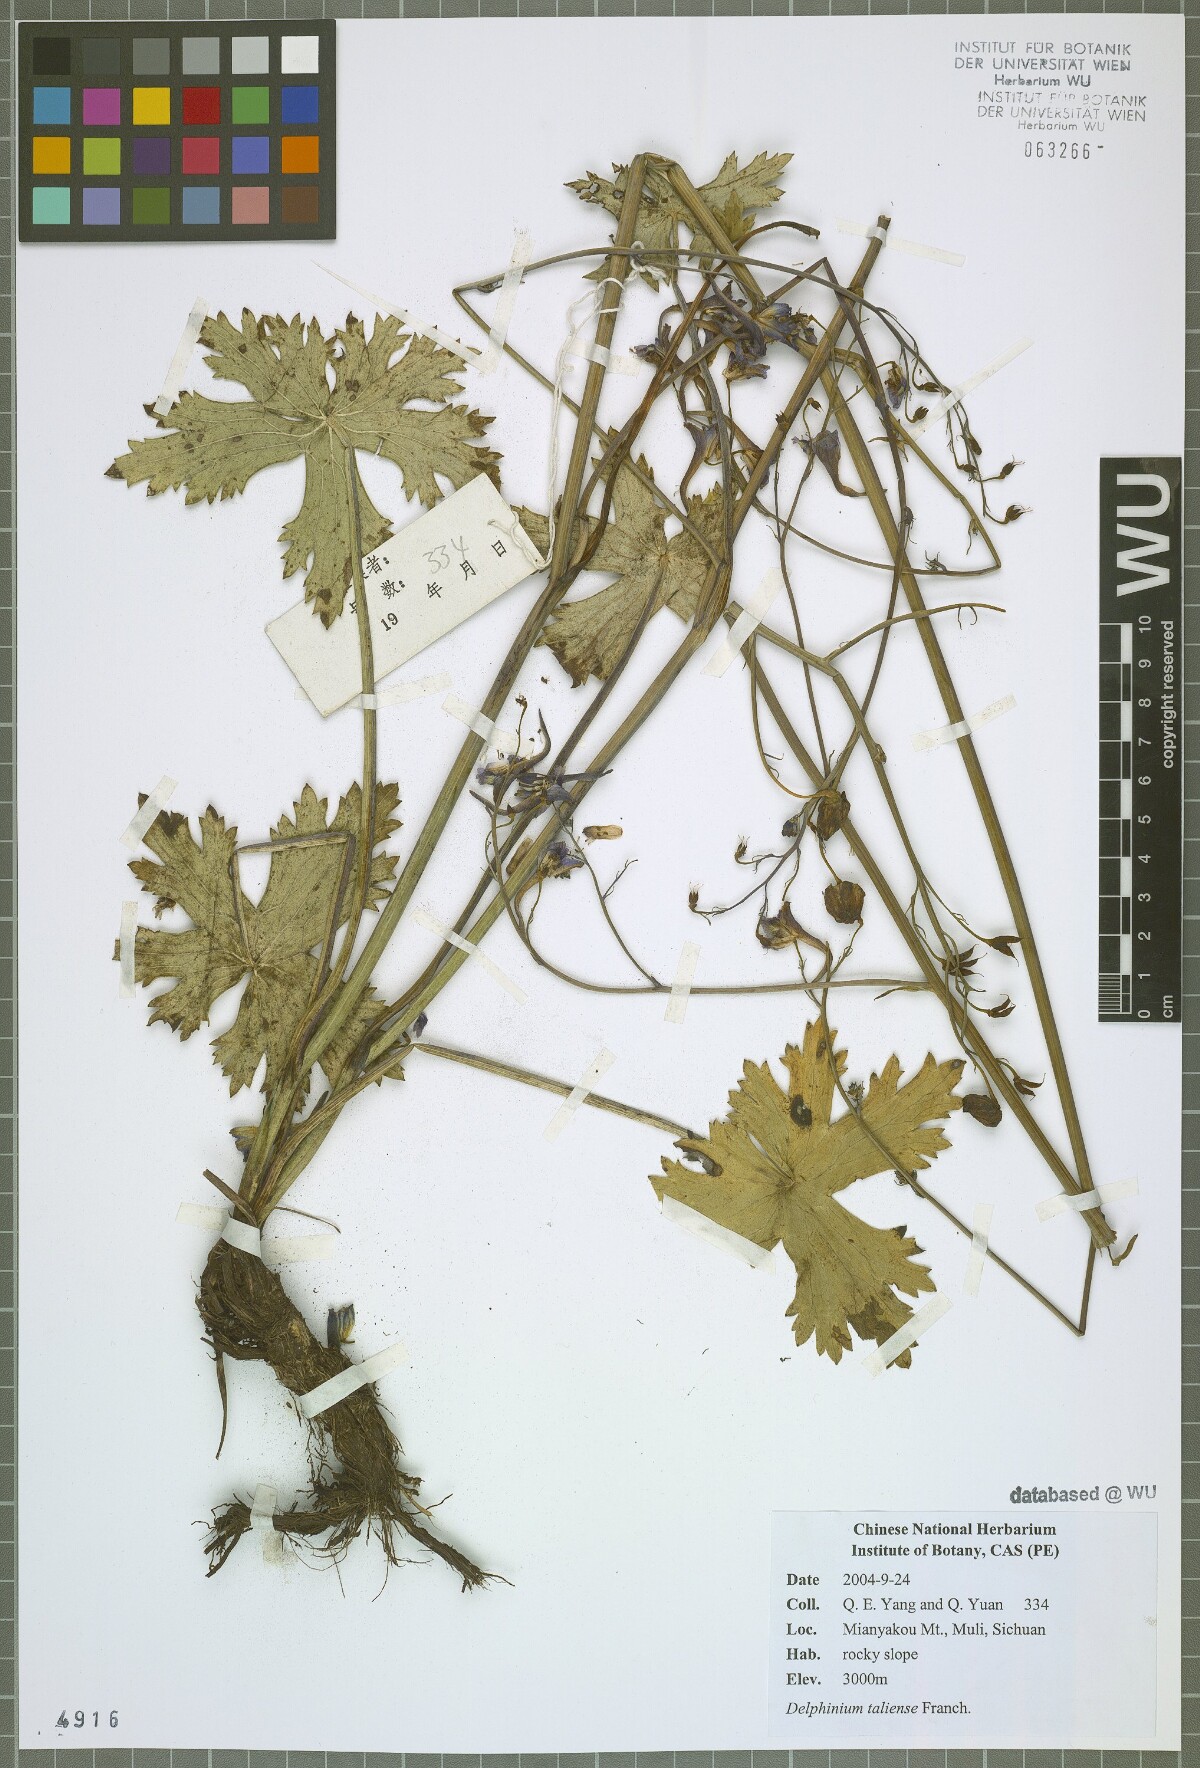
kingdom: Plantae
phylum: Tracheophyta
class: Magnoliopsida
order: Ranunculales
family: Ranunculaceae
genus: Delphinium
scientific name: Delphinium taliense
